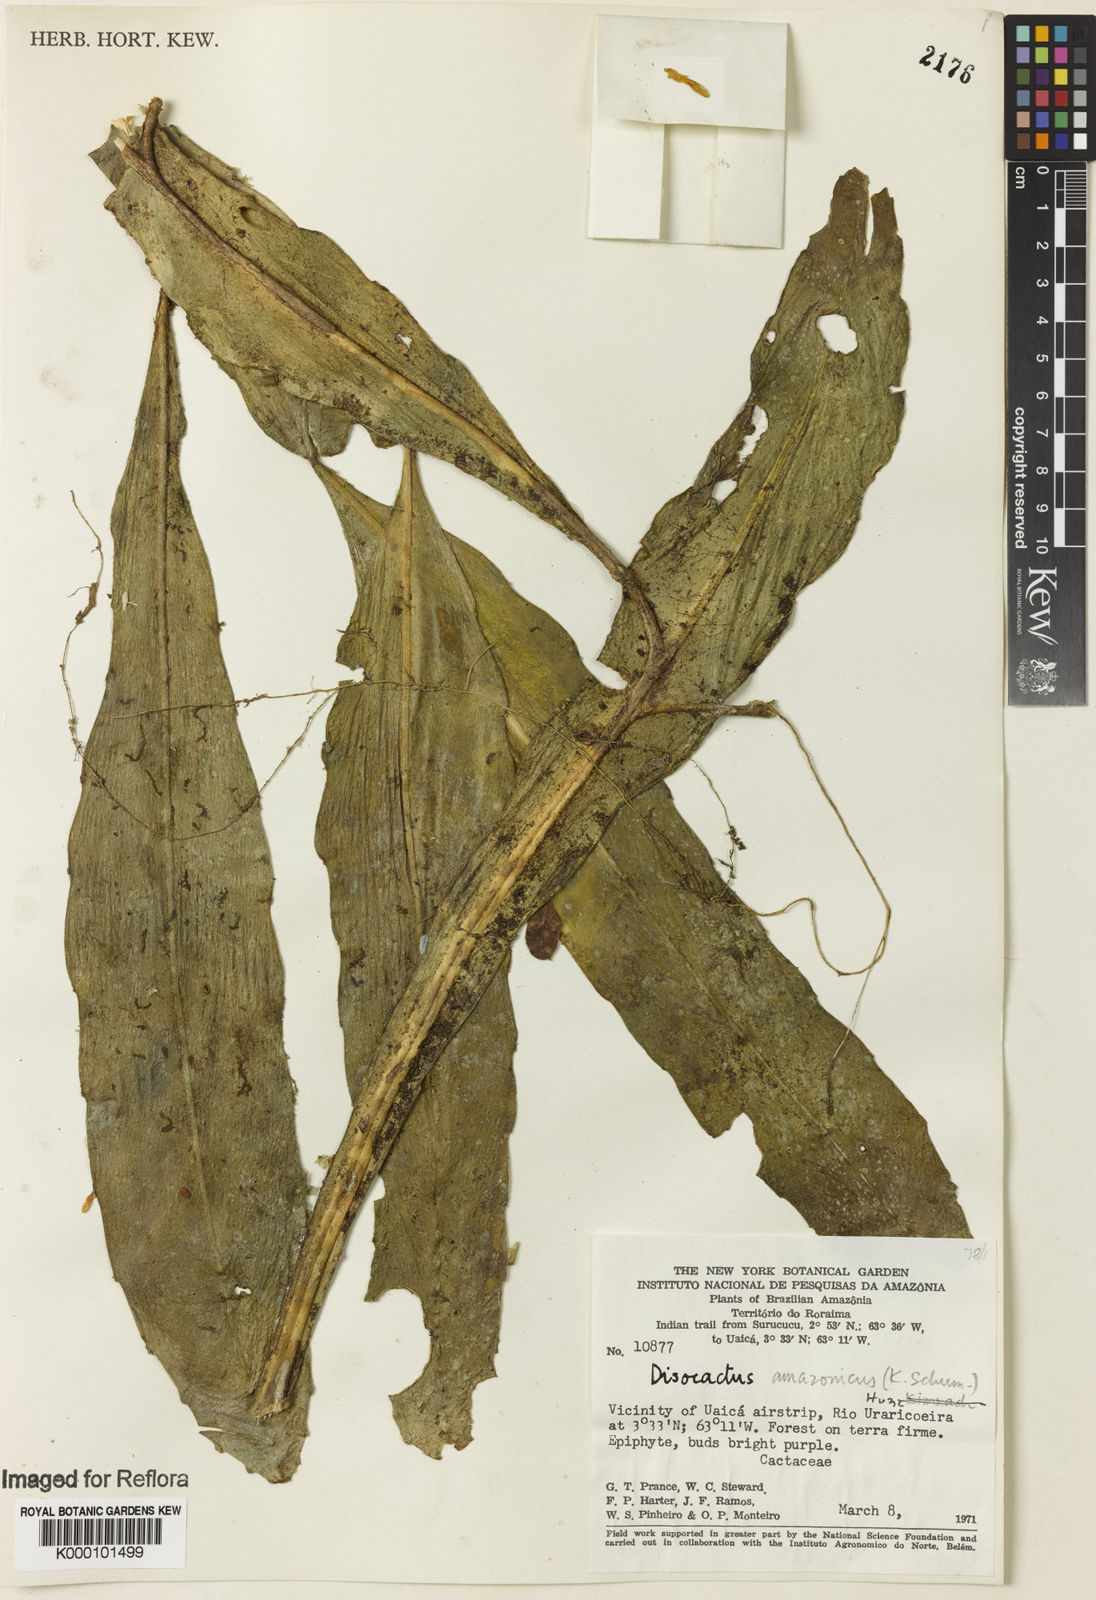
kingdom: Plantae
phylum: Tracheophyta
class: Magnoliopsida
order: Caryophyllales
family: Cactaceae
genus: Pseudorhipsalis
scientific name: Pseudorhipsalis amazonica
